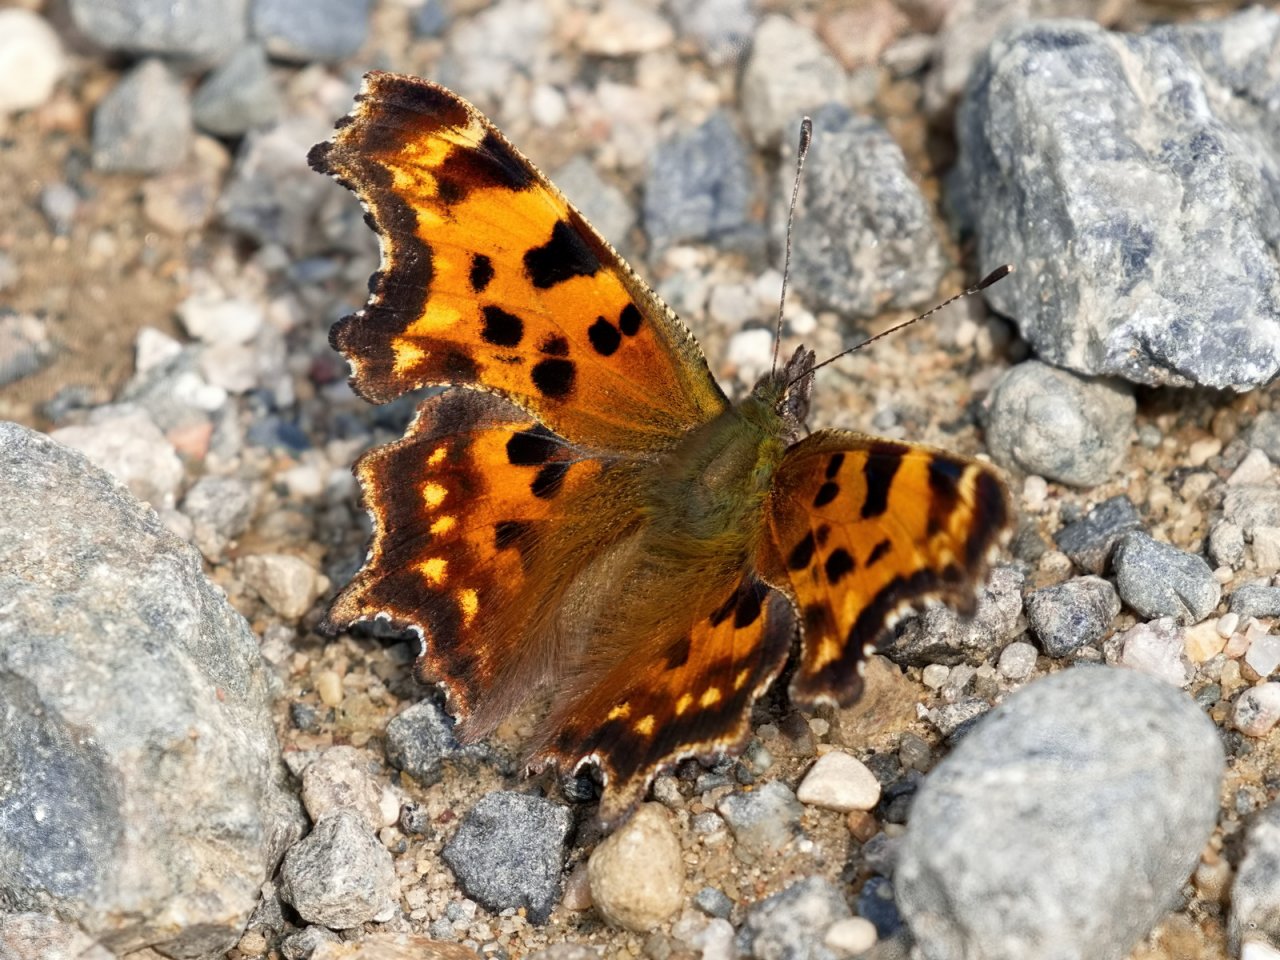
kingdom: Animalia
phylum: Arthropoda
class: Insecta
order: Lepidoptera
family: Nymphalidae
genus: Polygonia
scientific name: Polygonia faunus
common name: Green Comma
